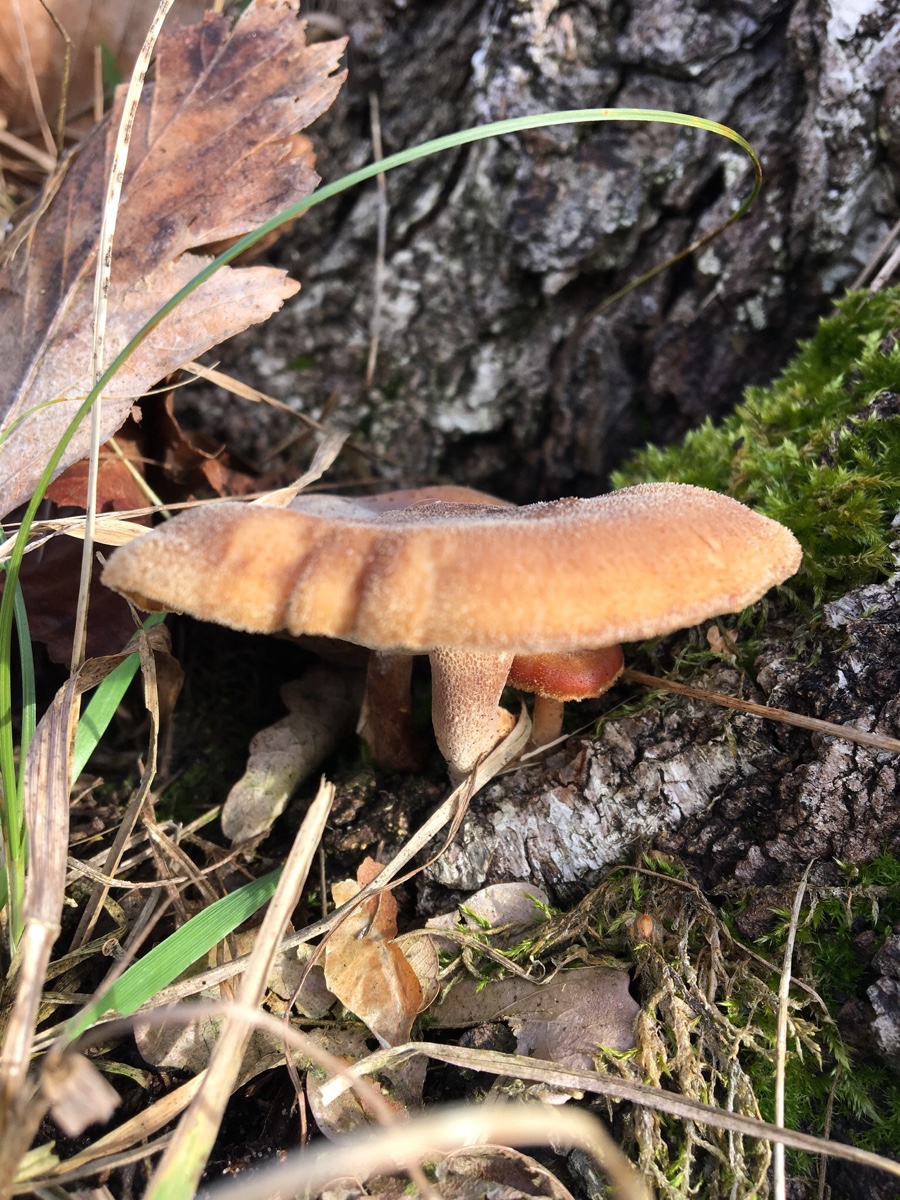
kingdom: Fungi
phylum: Basidiomycota
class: Agaricomycetes
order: Polyporales
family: Polyporaceae
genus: Lentinus
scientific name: Lentinus brumalis
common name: vinter-stilkporesvamp
